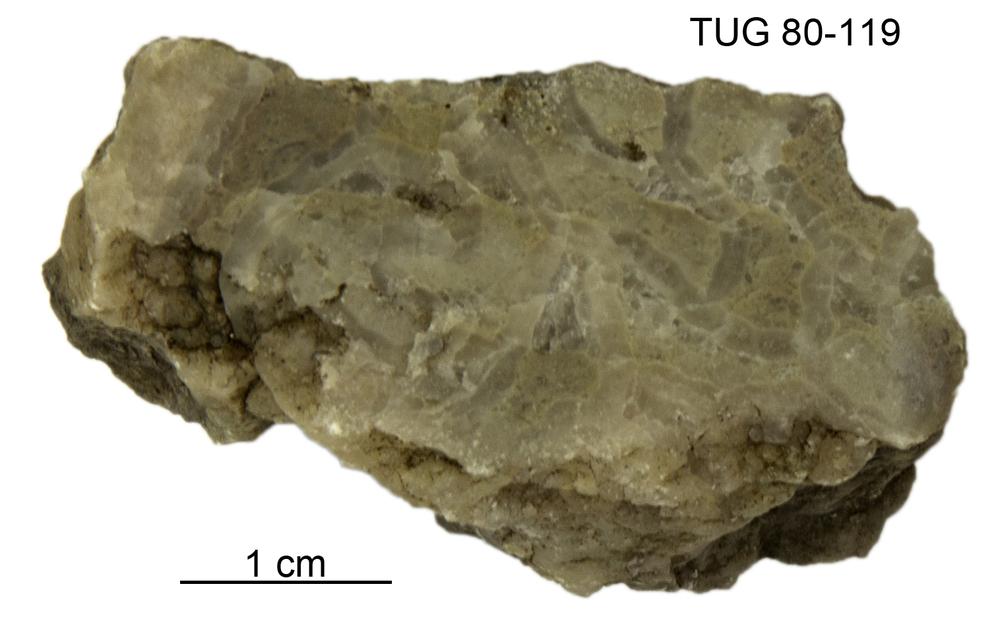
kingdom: Animalia
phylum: Cnidaria
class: Anthozoa
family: Cateniporidae
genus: Catenipora
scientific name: Catenipora
